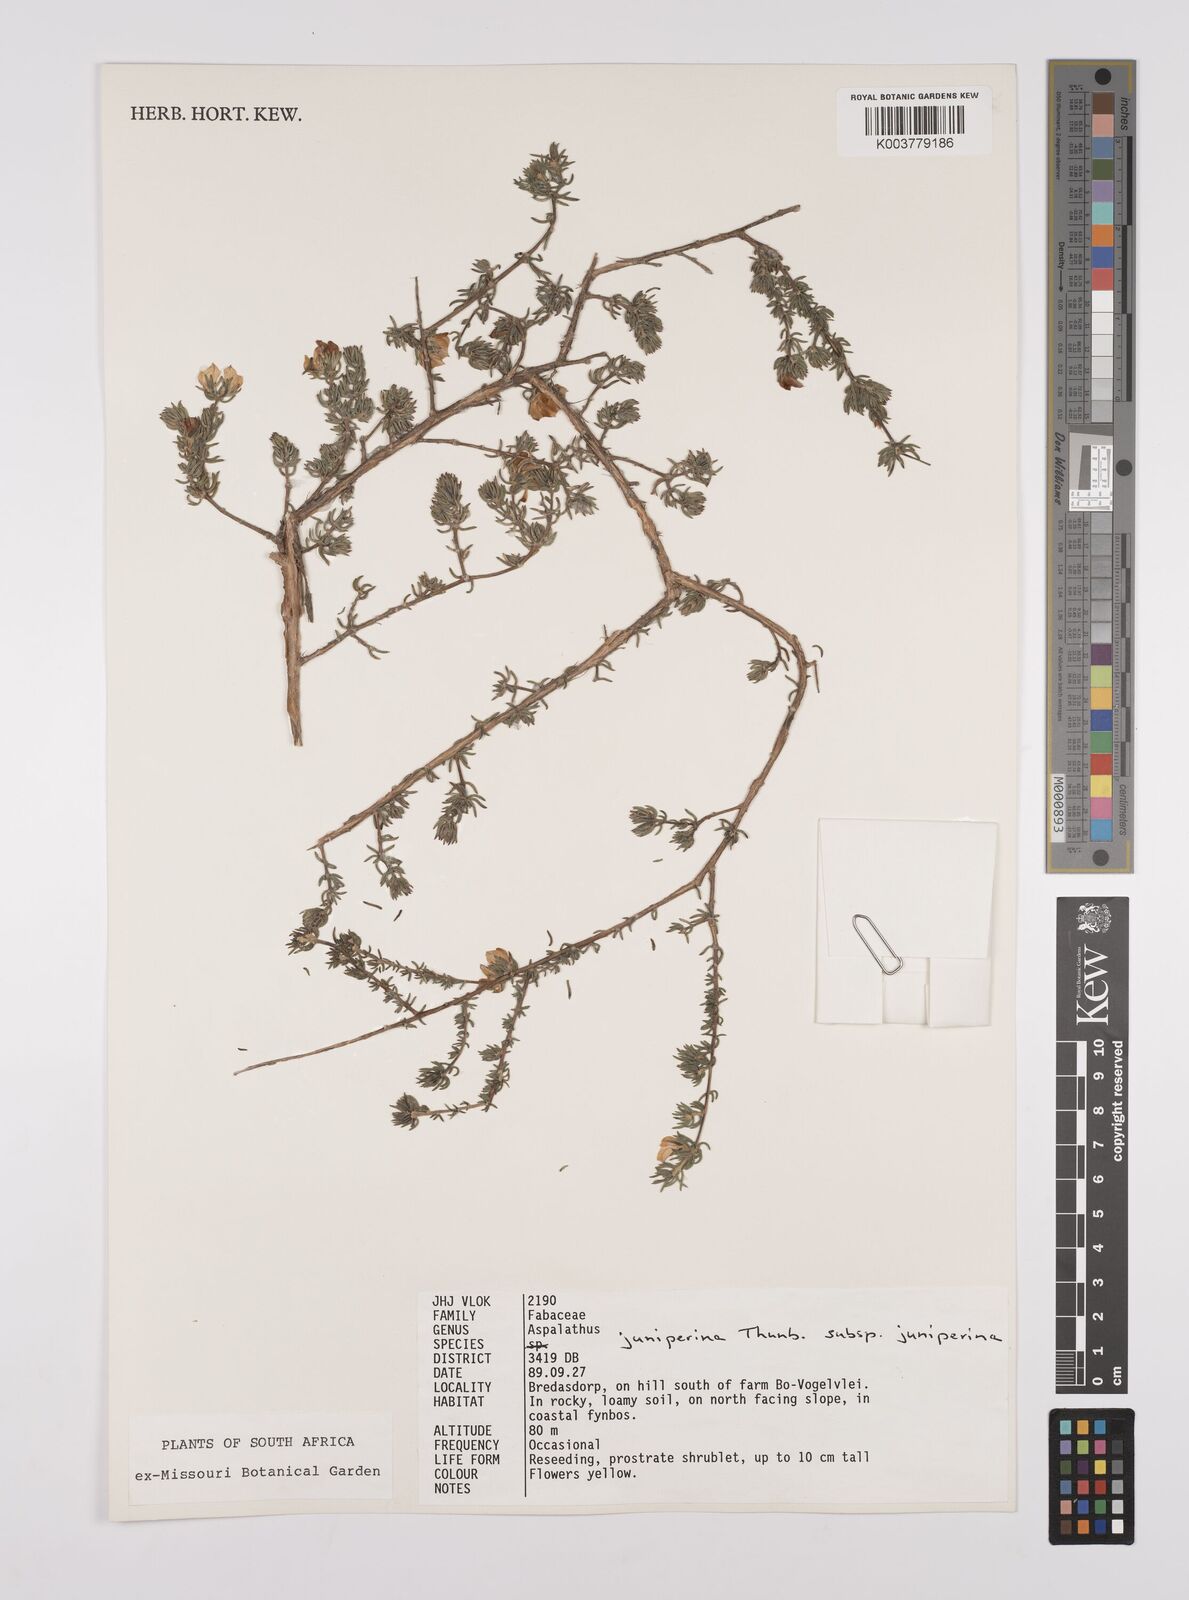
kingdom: Plantae
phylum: Tracheophyta
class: Magnoliopsida
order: Fabales
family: Fabaceae
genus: Aspalathus
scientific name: Aspalathus juniperina
